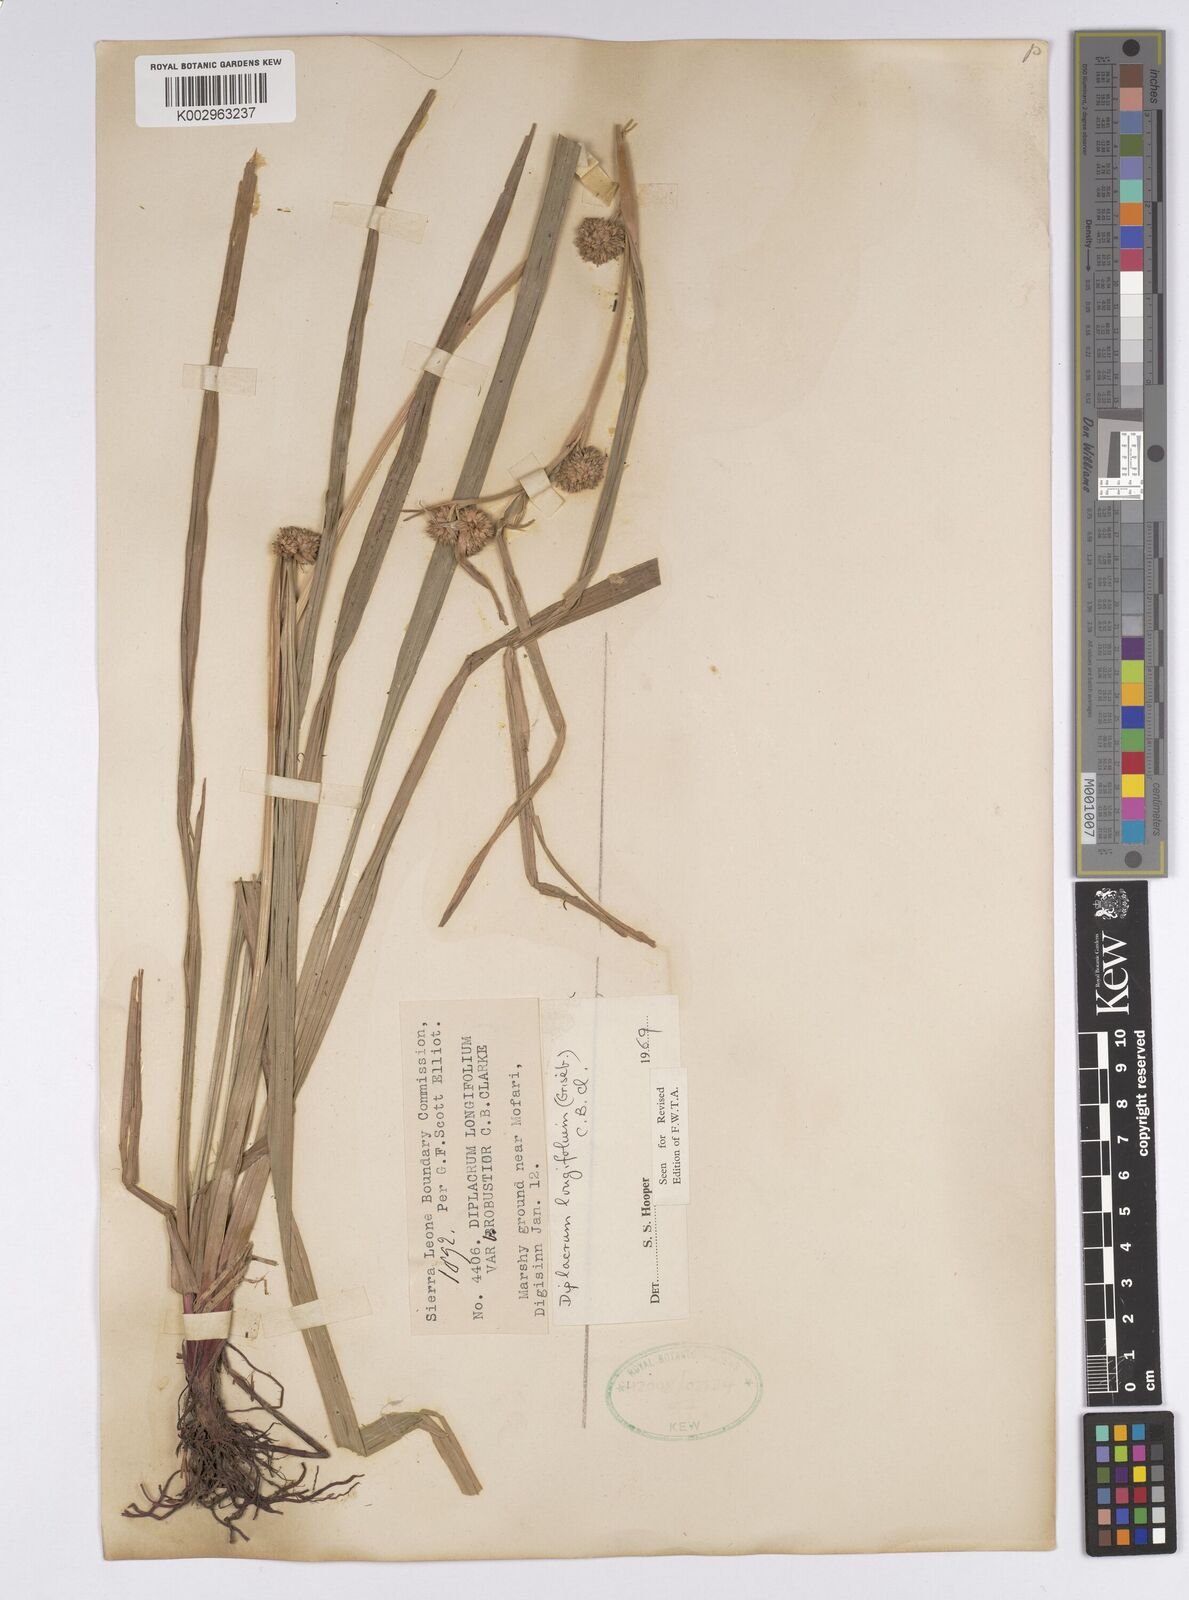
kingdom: Plantae
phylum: Tracheophyta
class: Liliopsida
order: Poales
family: Cyperaceae
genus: Diplacrum
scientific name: Diplacrum capitatum
